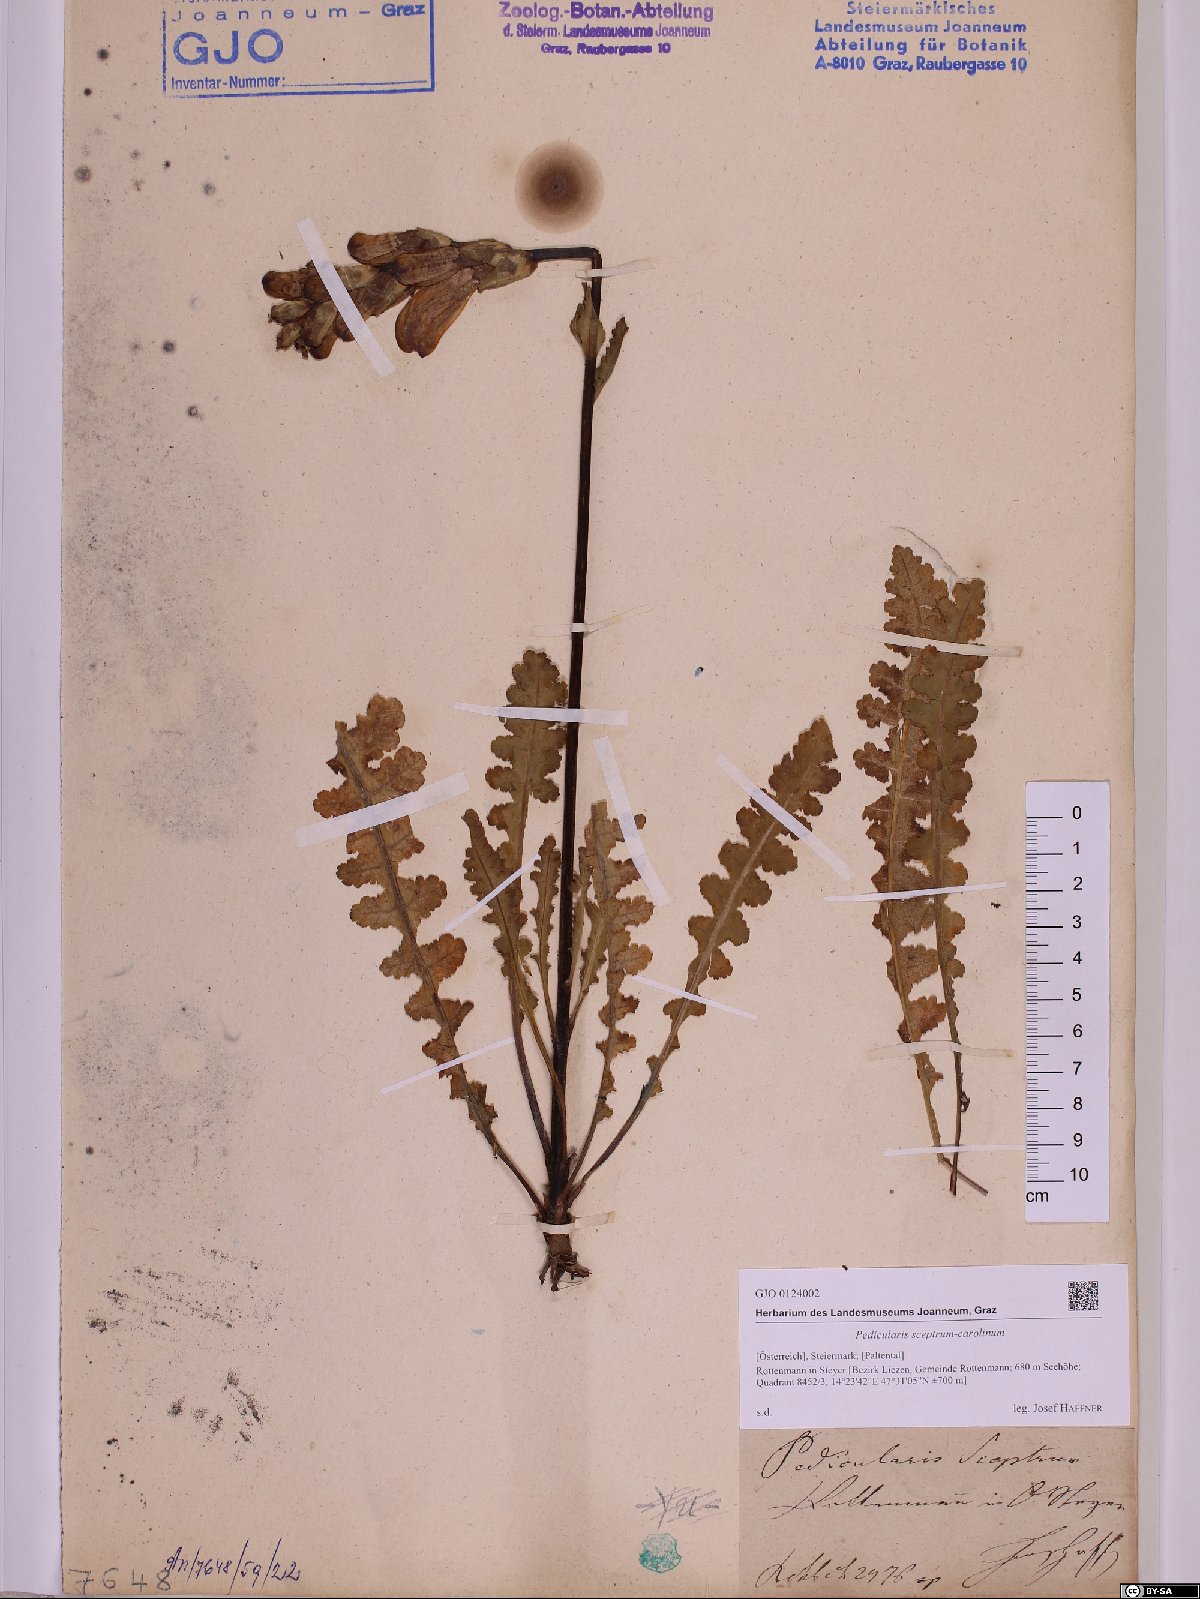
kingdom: Plantae
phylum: Tracheophyta
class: Magnoliopsida
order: Lamiales
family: Orobanchaceae
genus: Pedicularis
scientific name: Pedicularis sceptrum-carolinum
